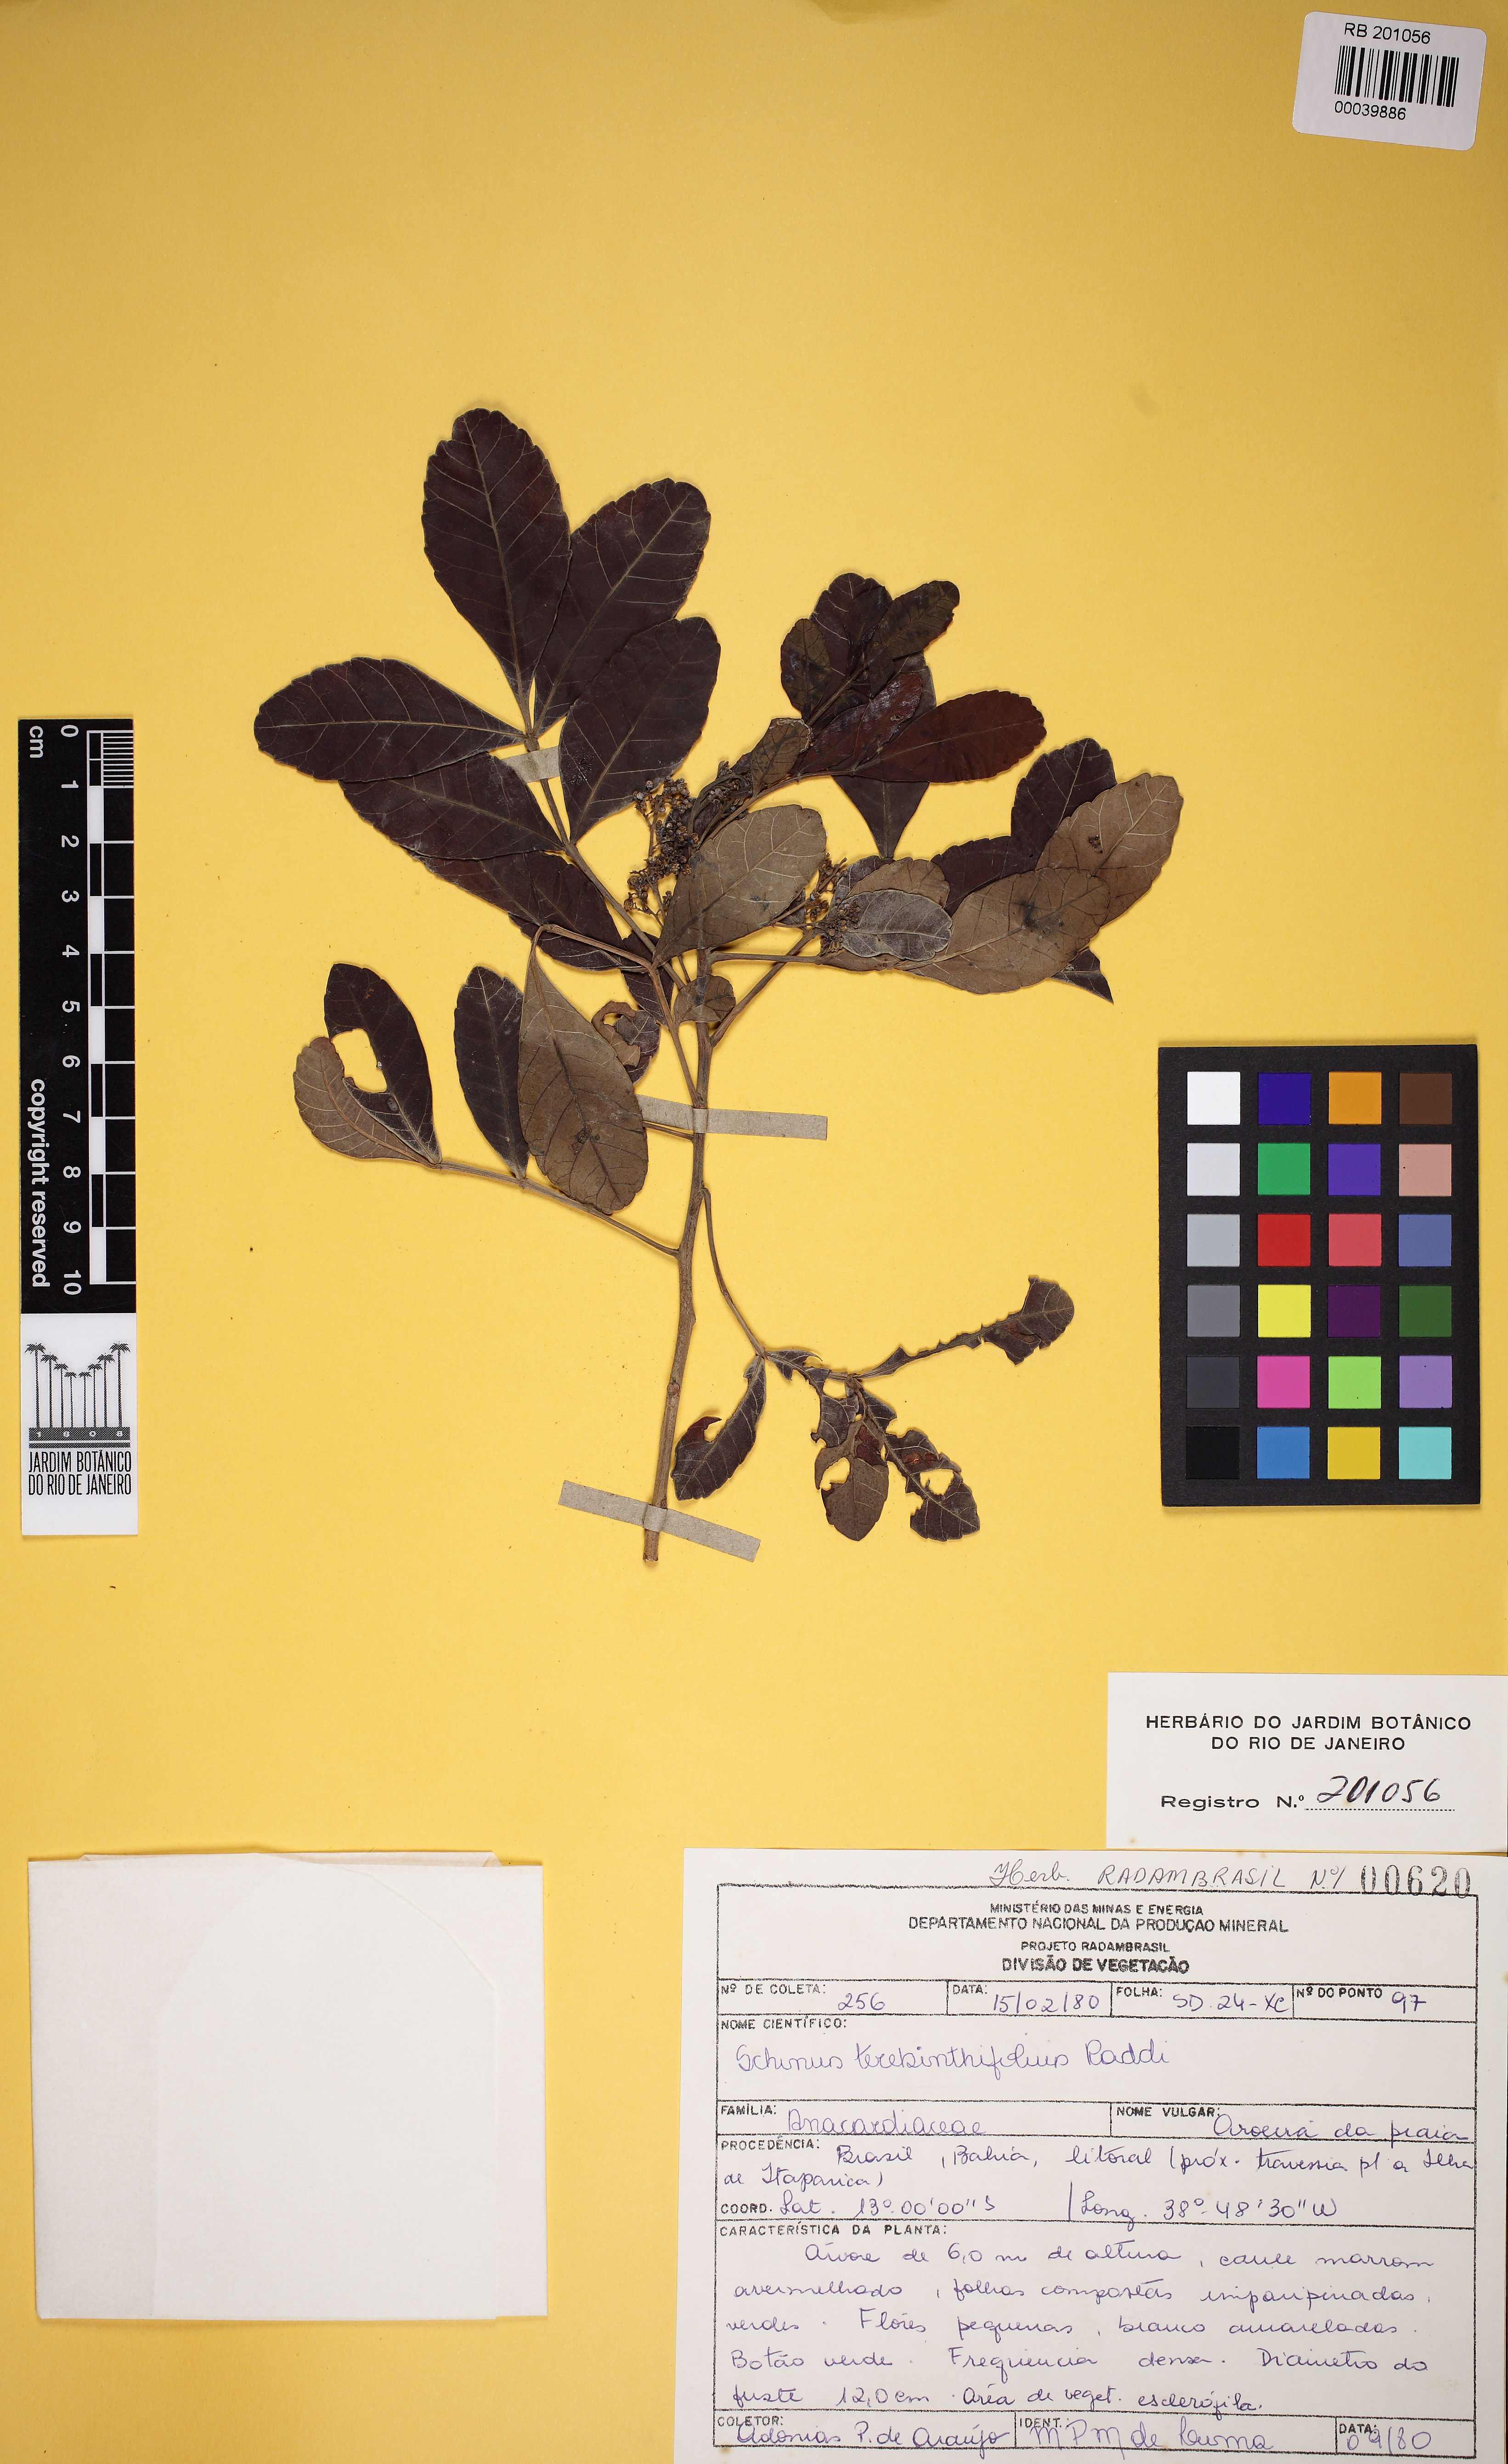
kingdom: Plantae
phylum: Tracheophyta
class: Magnoliopsida
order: Sapindales
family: Anacardiaceae
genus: Schinus
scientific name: Schinus terebinthifolia
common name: Brazilian peppertree
